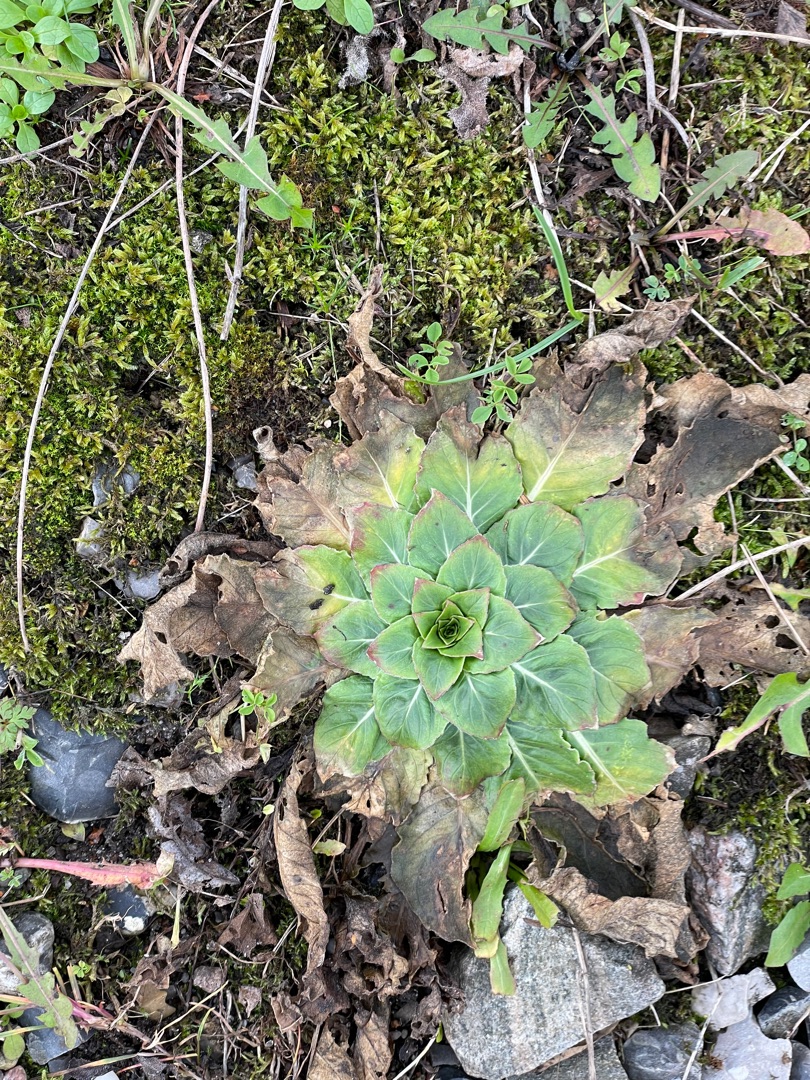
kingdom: Plantae
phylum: Tracheophyta
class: Magnoliopsida
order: Myrtales
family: Onagraceae
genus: Oenothera
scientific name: Oenothera
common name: Natlysslægten
